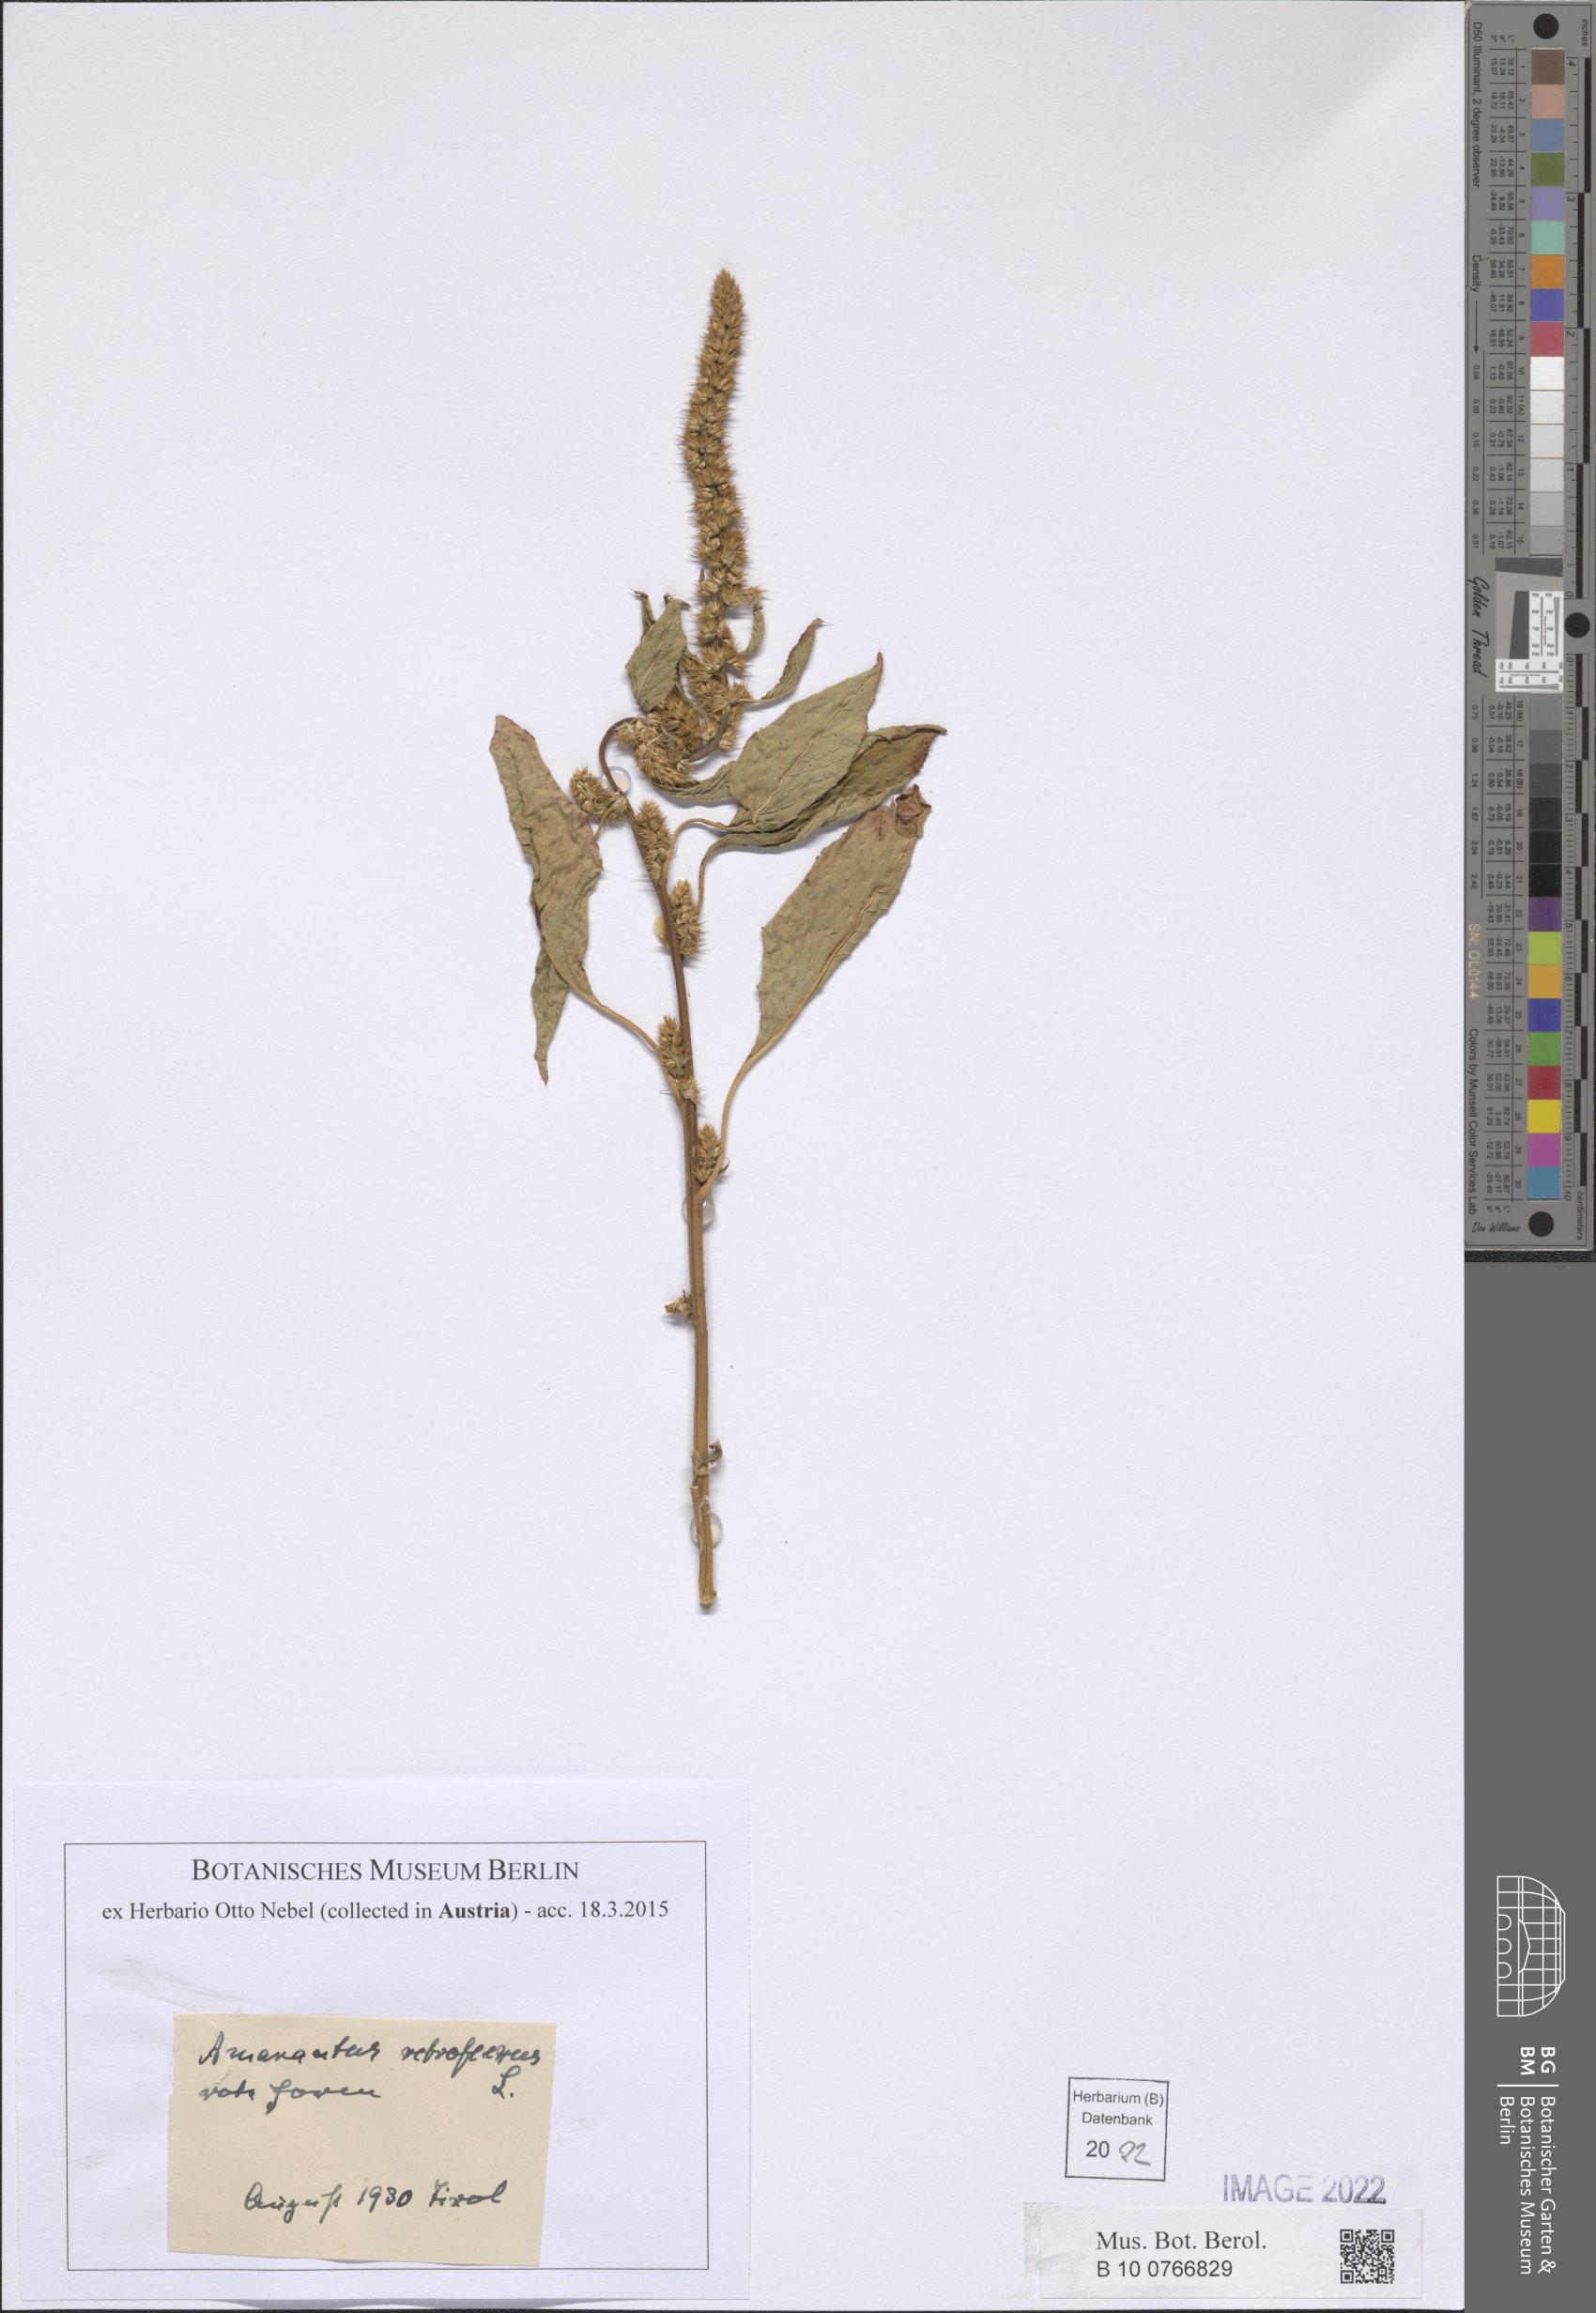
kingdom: Plantae
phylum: Tracheophyta
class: Magnoliopsida
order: Caryophyllales
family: Amaranthaceae
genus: Amaranthus
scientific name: Amaranthus retroflexus
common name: Redroot amaranth
